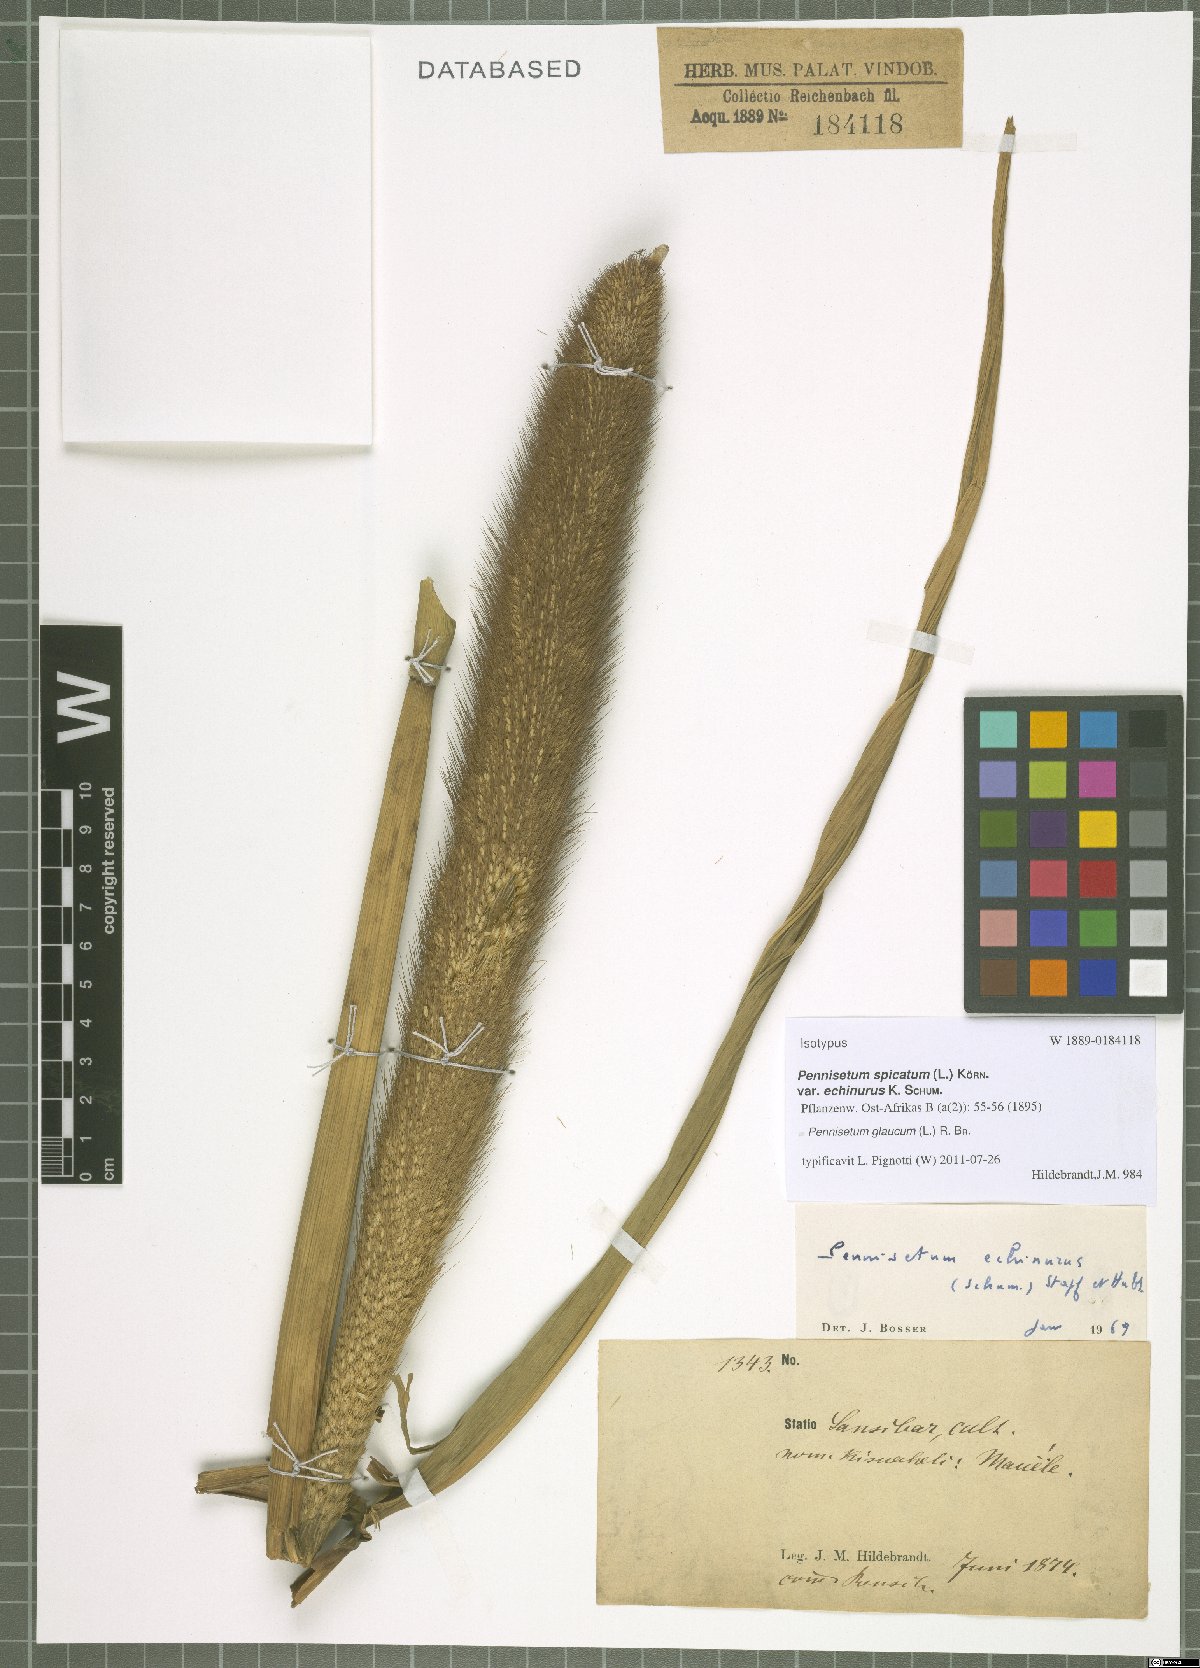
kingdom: Plantae
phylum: Tracheophyta
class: Liliopsida
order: Poales
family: Poaceae
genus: Cenchrus
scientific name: Cenchrus americanus
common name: Pearl millet
